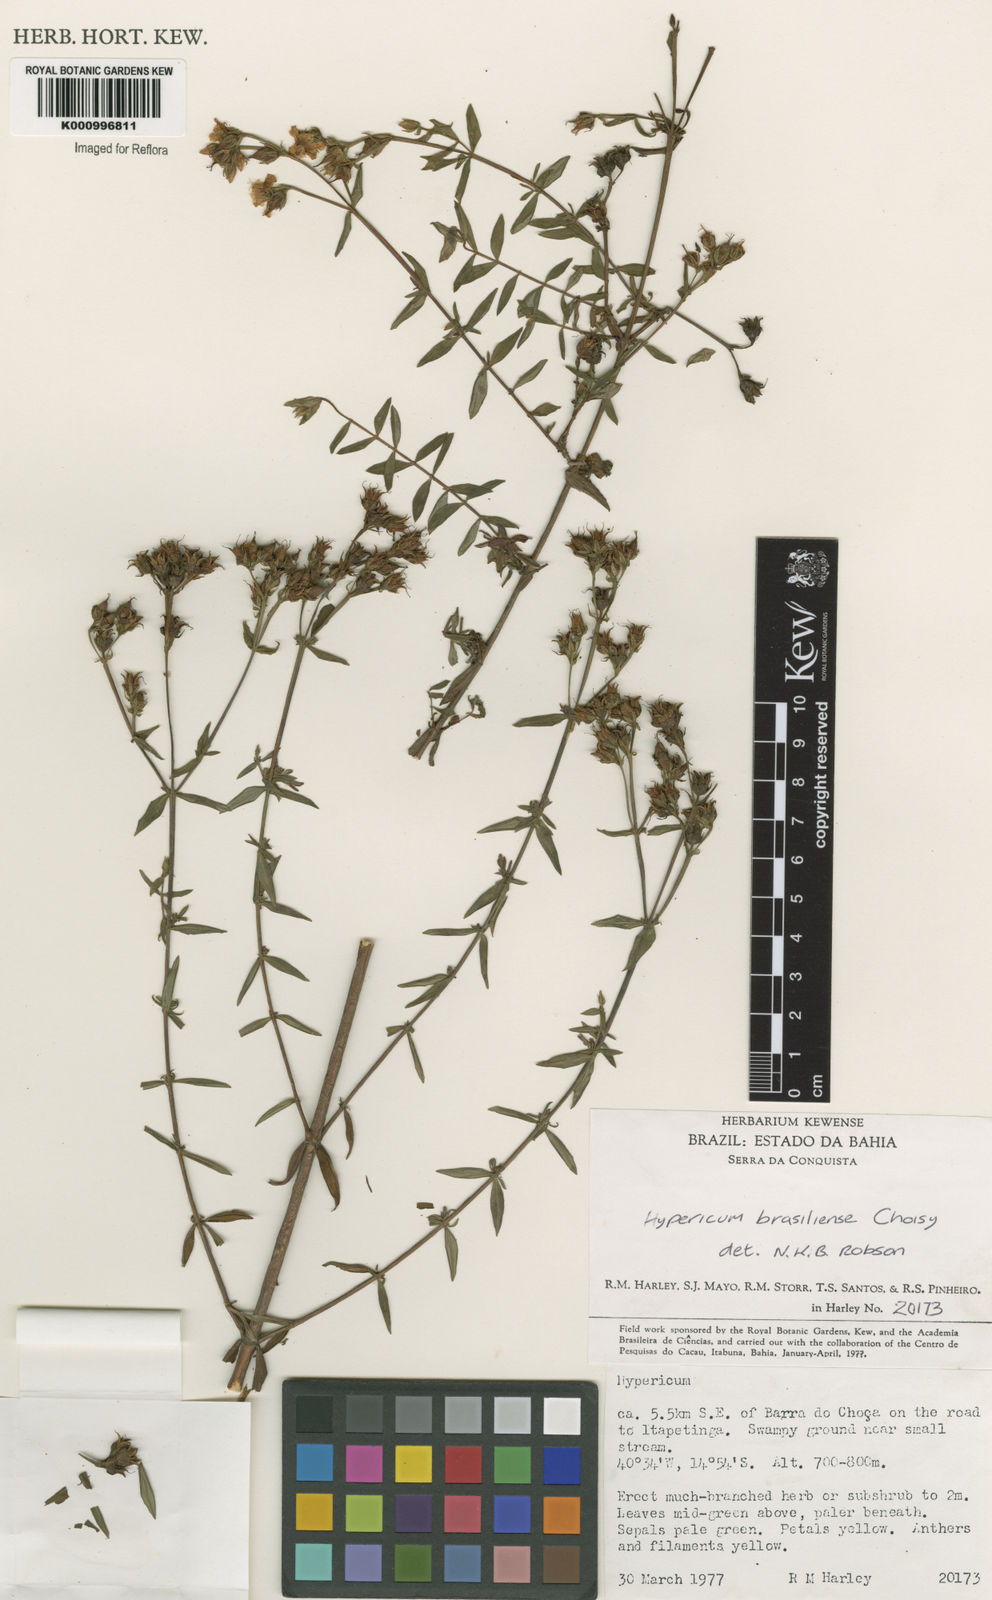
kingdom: Plantae
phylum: Tracheophyta
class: Magnoliopsida
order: Malpighiales
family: Hypericaceae
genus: Hypericum
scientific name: Hypericum brasiliense
